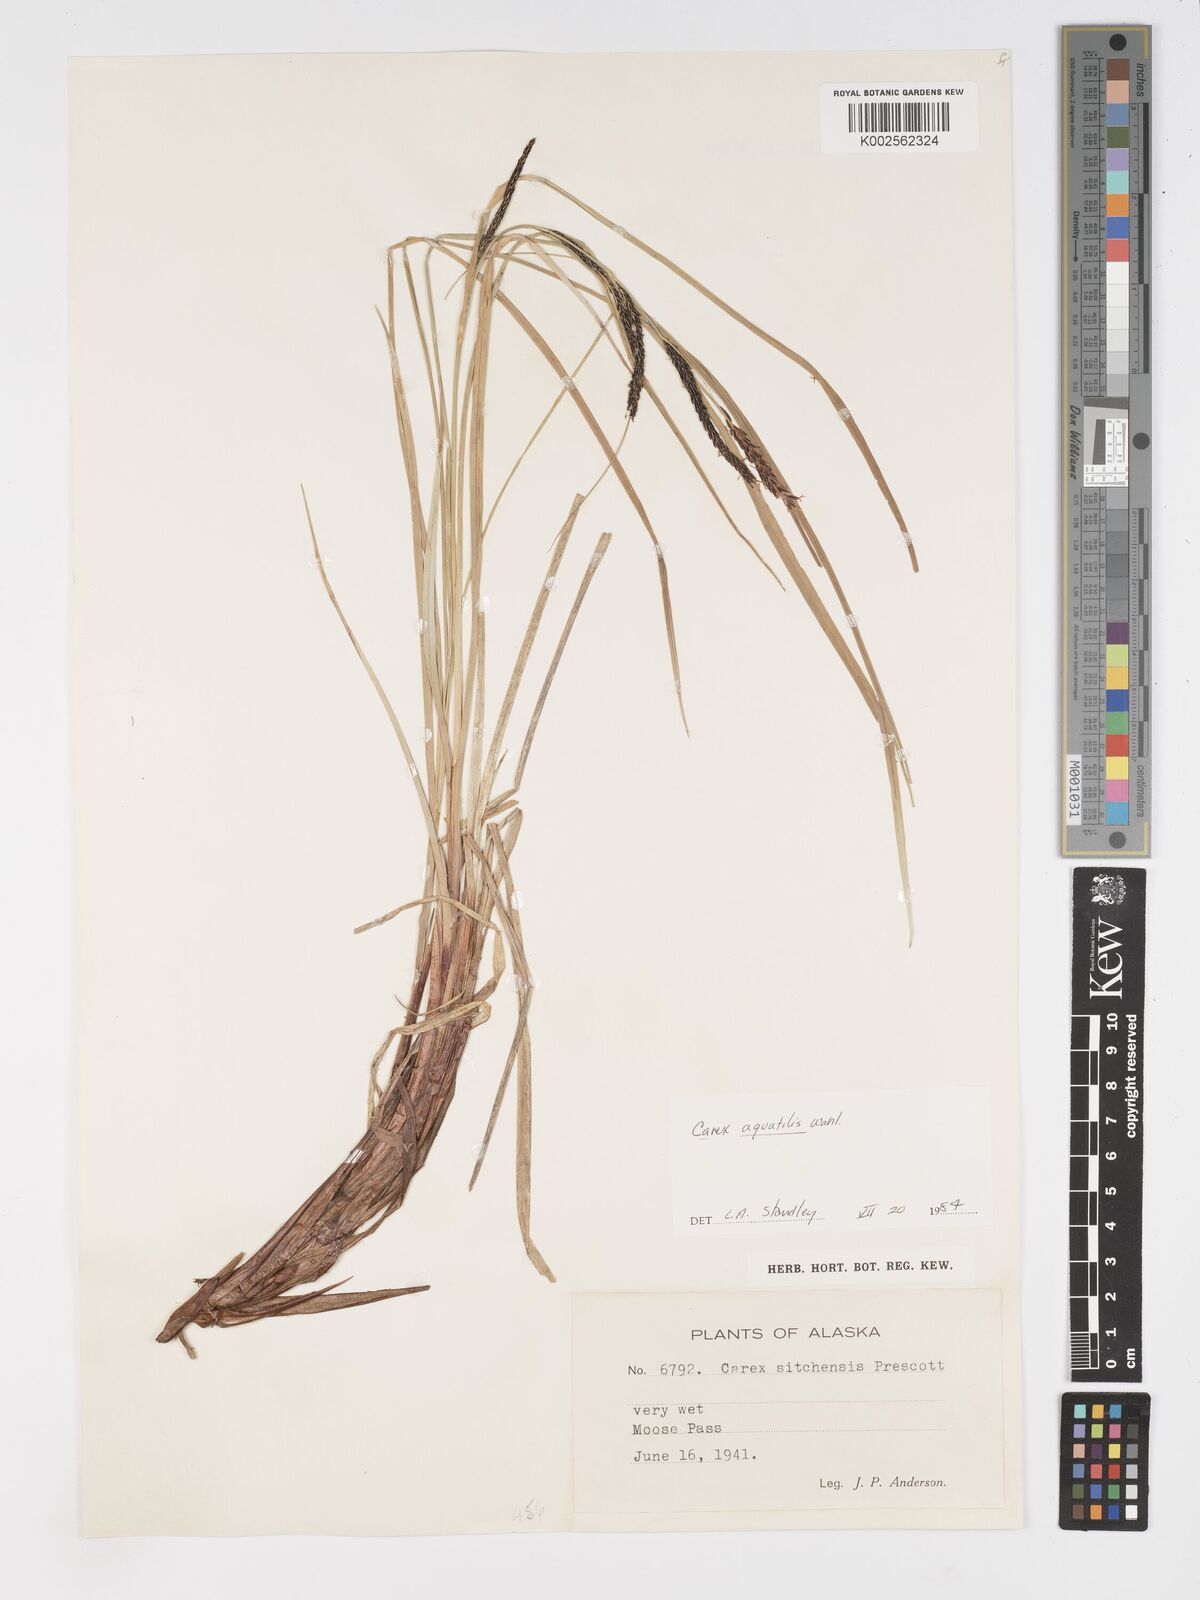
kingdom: Plantae
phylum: Tracheophyta
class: Liliopsida
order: Poales
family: Cyperaceae
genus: Carex
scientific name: Carex aquatilis
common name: Water sedge
